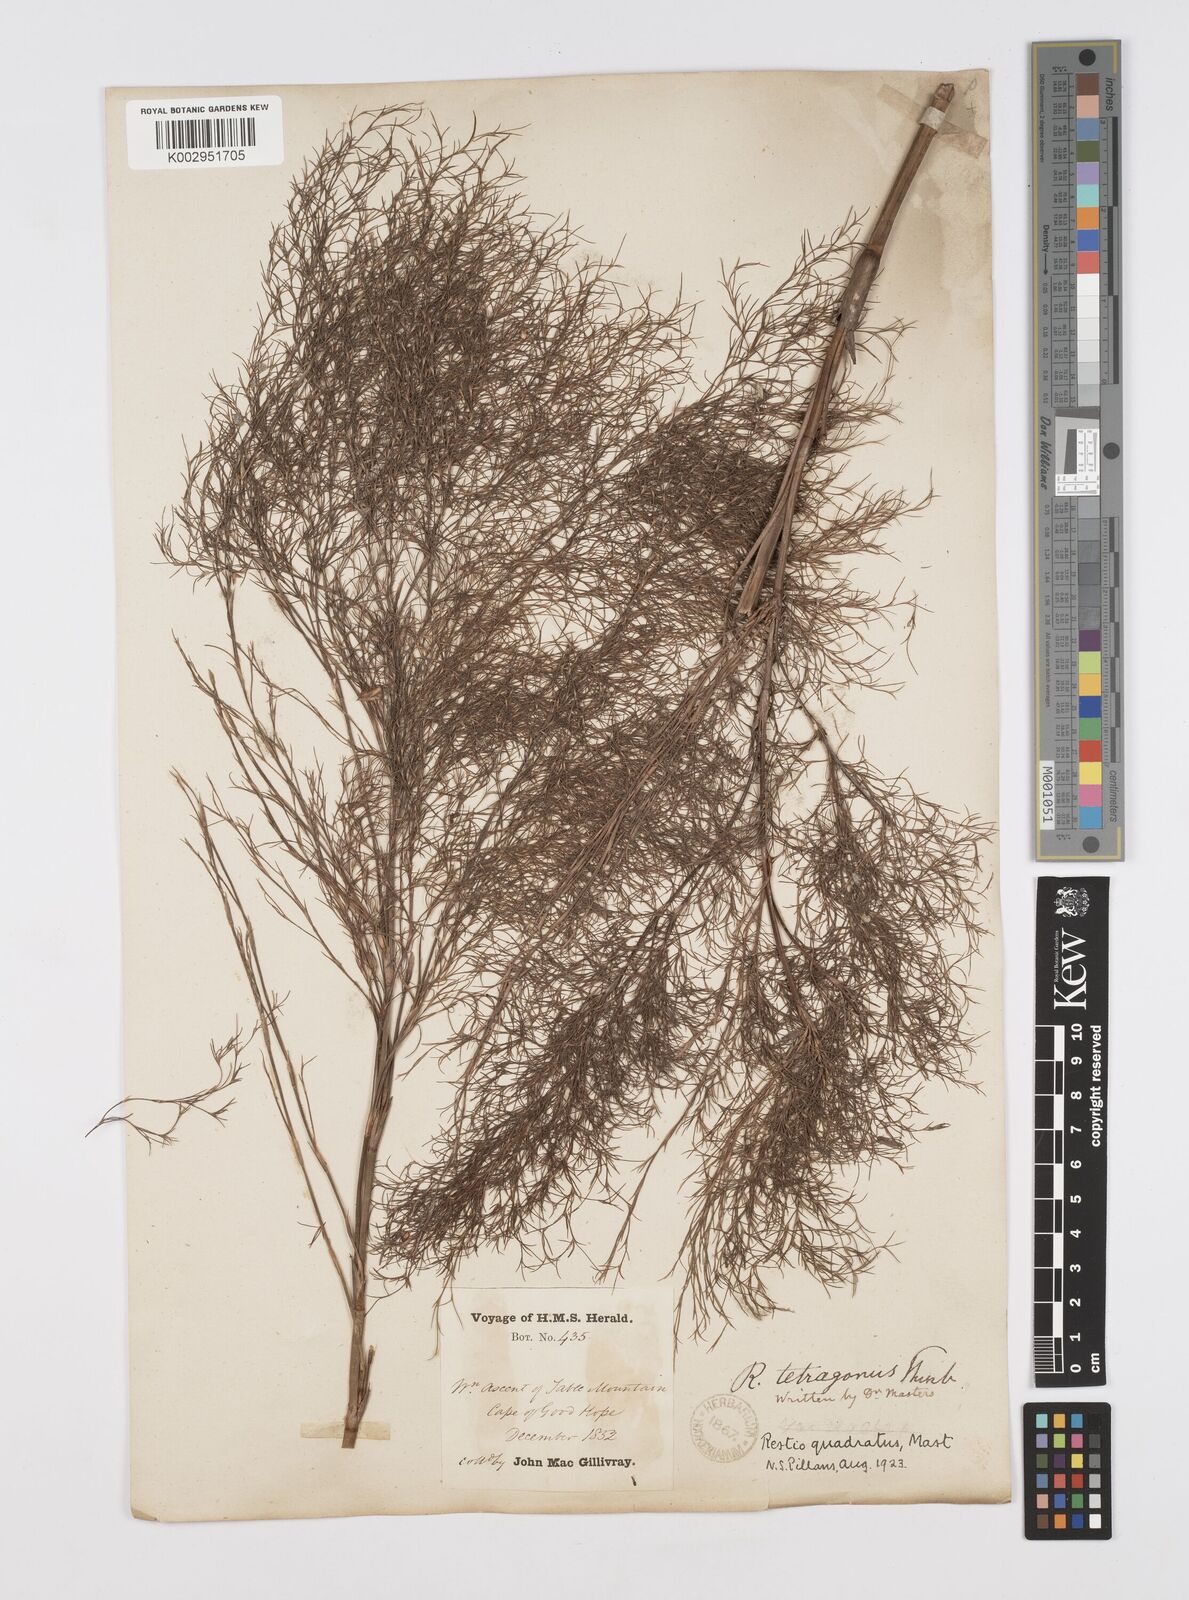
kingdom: Plantae
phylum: Tracheophyta
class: Liliopsida
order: Poales
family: Restionaceae
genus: Restio
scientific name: Restio tetragonus
